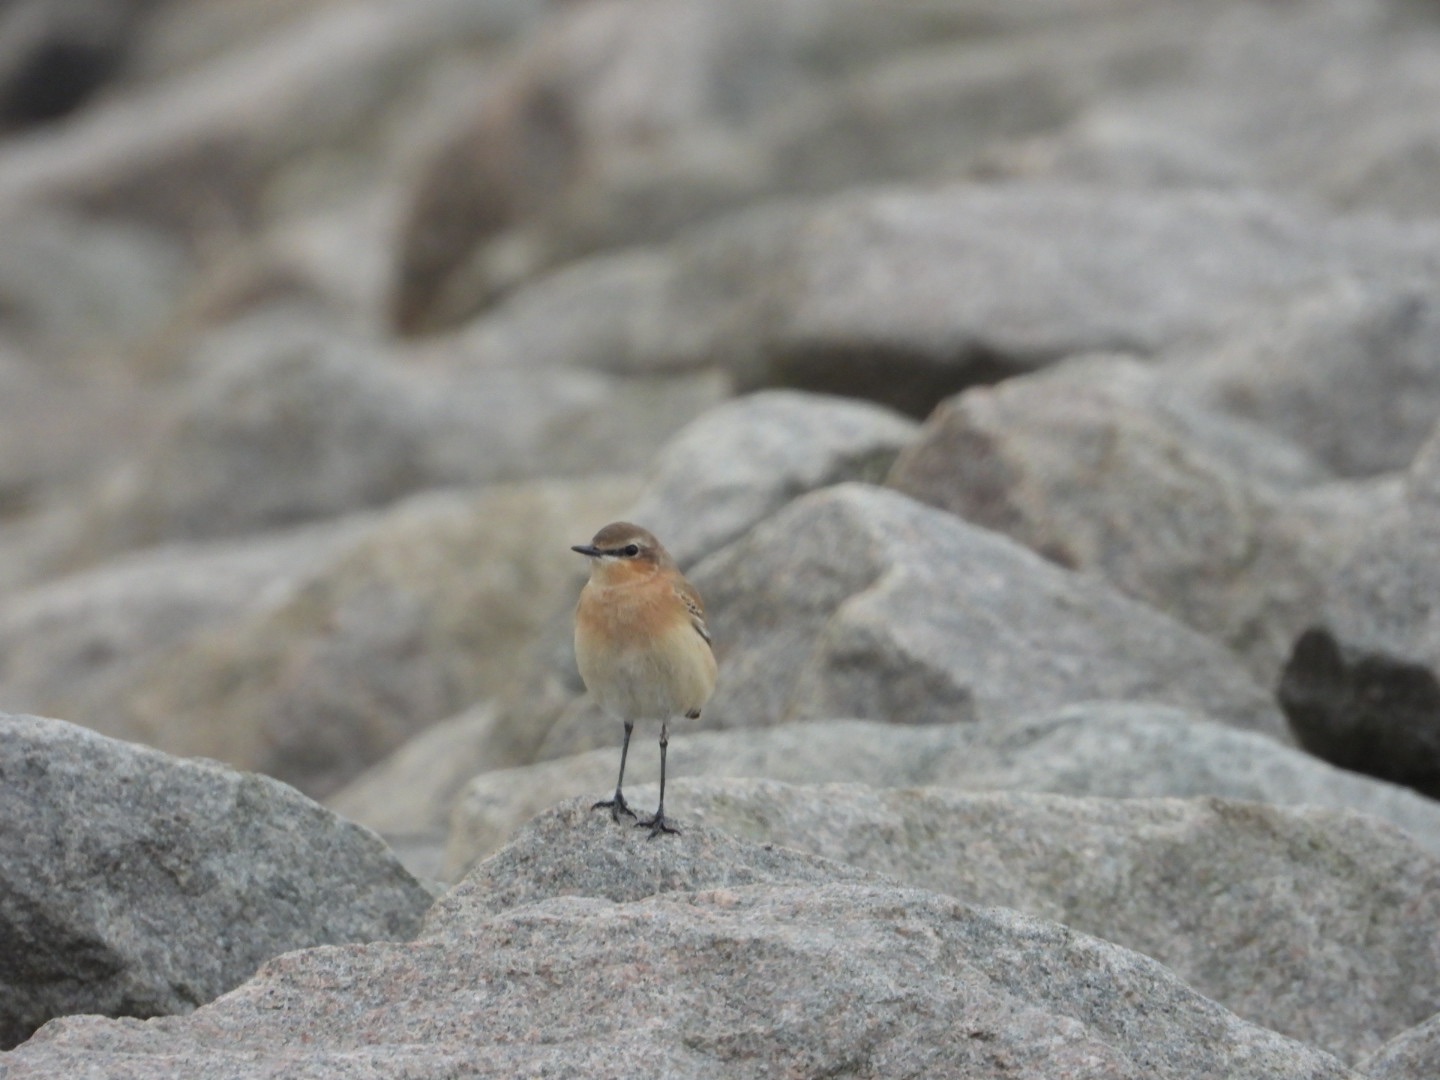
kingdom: Animalia
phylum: Chordata
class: Aves
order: Passeriformes
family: Muscicapidae
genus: Oenanthe
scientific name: Oenanthe oenanthe
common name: Stenpikker
